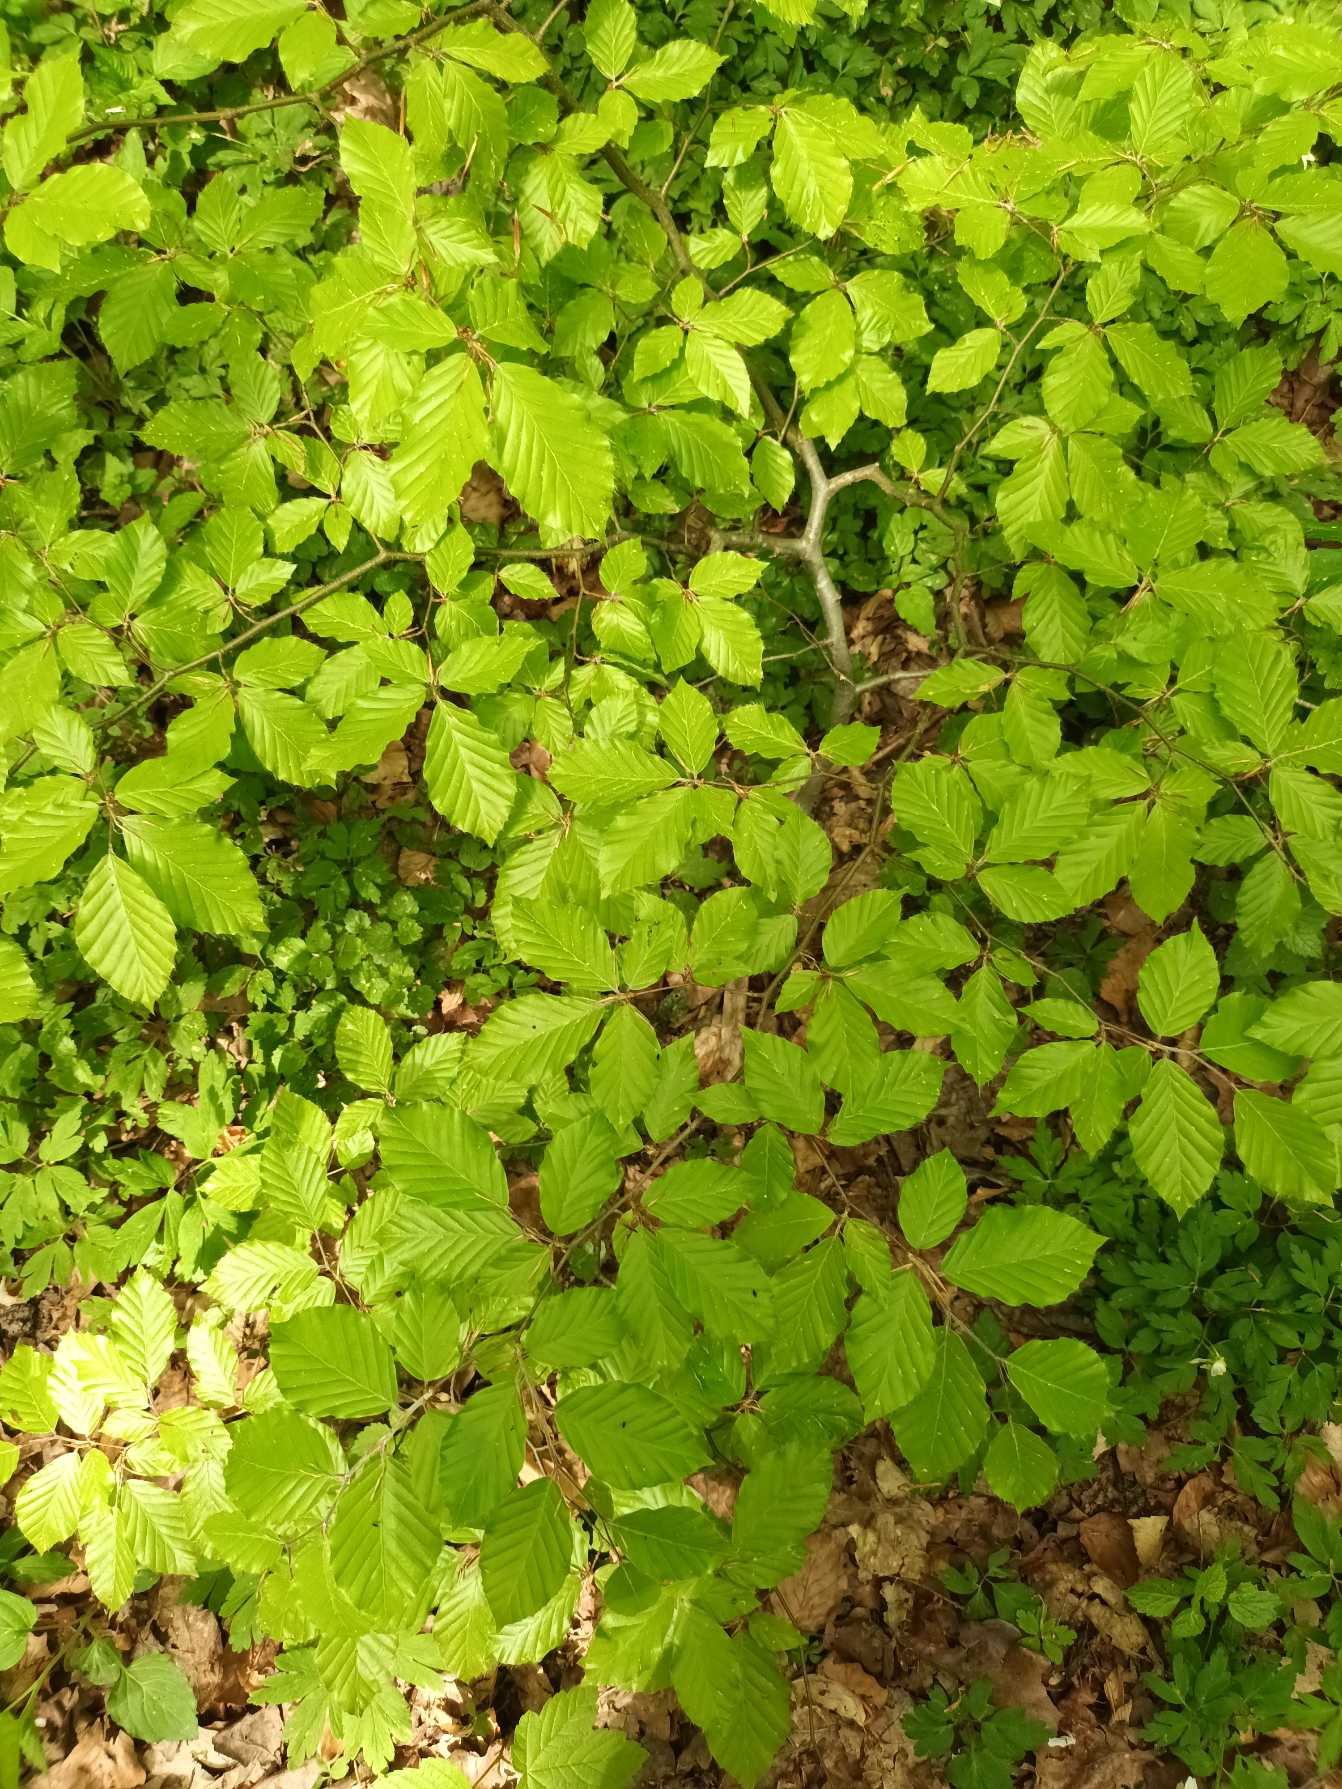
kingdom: Plantae
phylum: Tracheophyta
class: Magnoliopsida
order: Fagales
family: Fagaceae
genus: Fagus
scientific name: Fagus sylvatica
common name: Bøg
